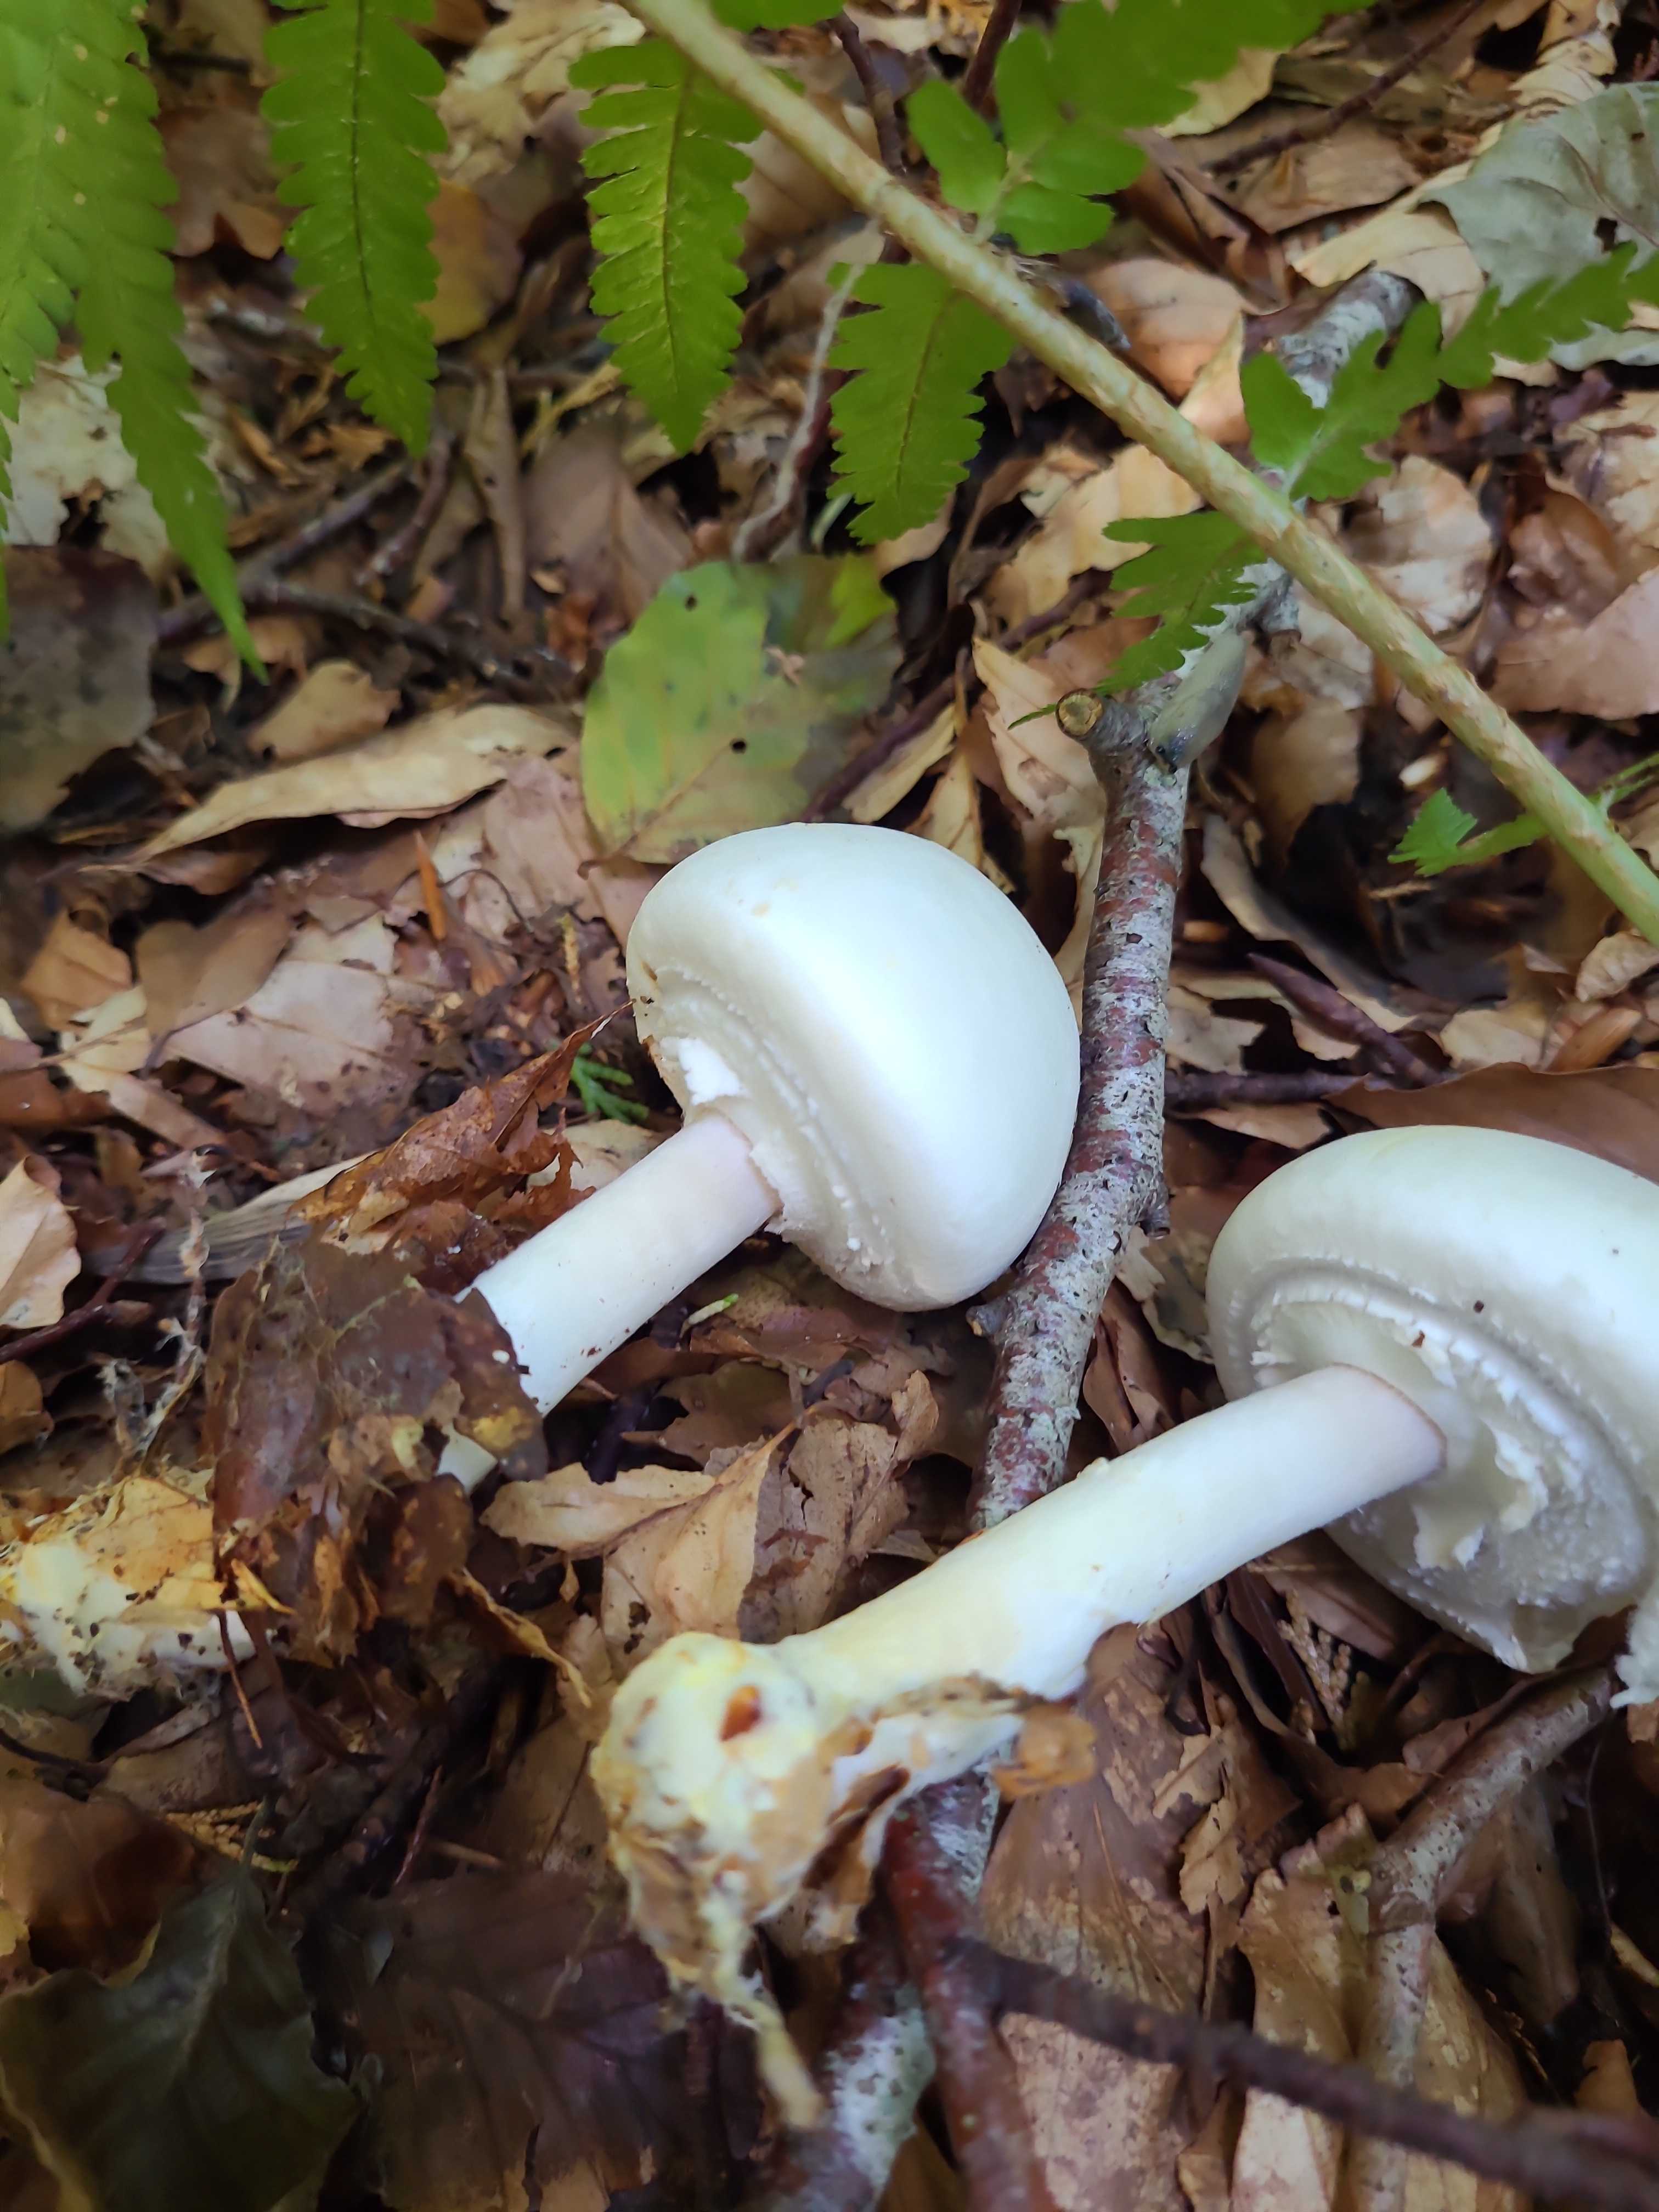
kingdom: Fungi
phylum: Basidiomycota
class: Agaricomycetes
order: Agaricales
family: Agaricaceae
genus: Agaricus
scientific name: Agaricus xanthodermus
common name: karbol-champignon
